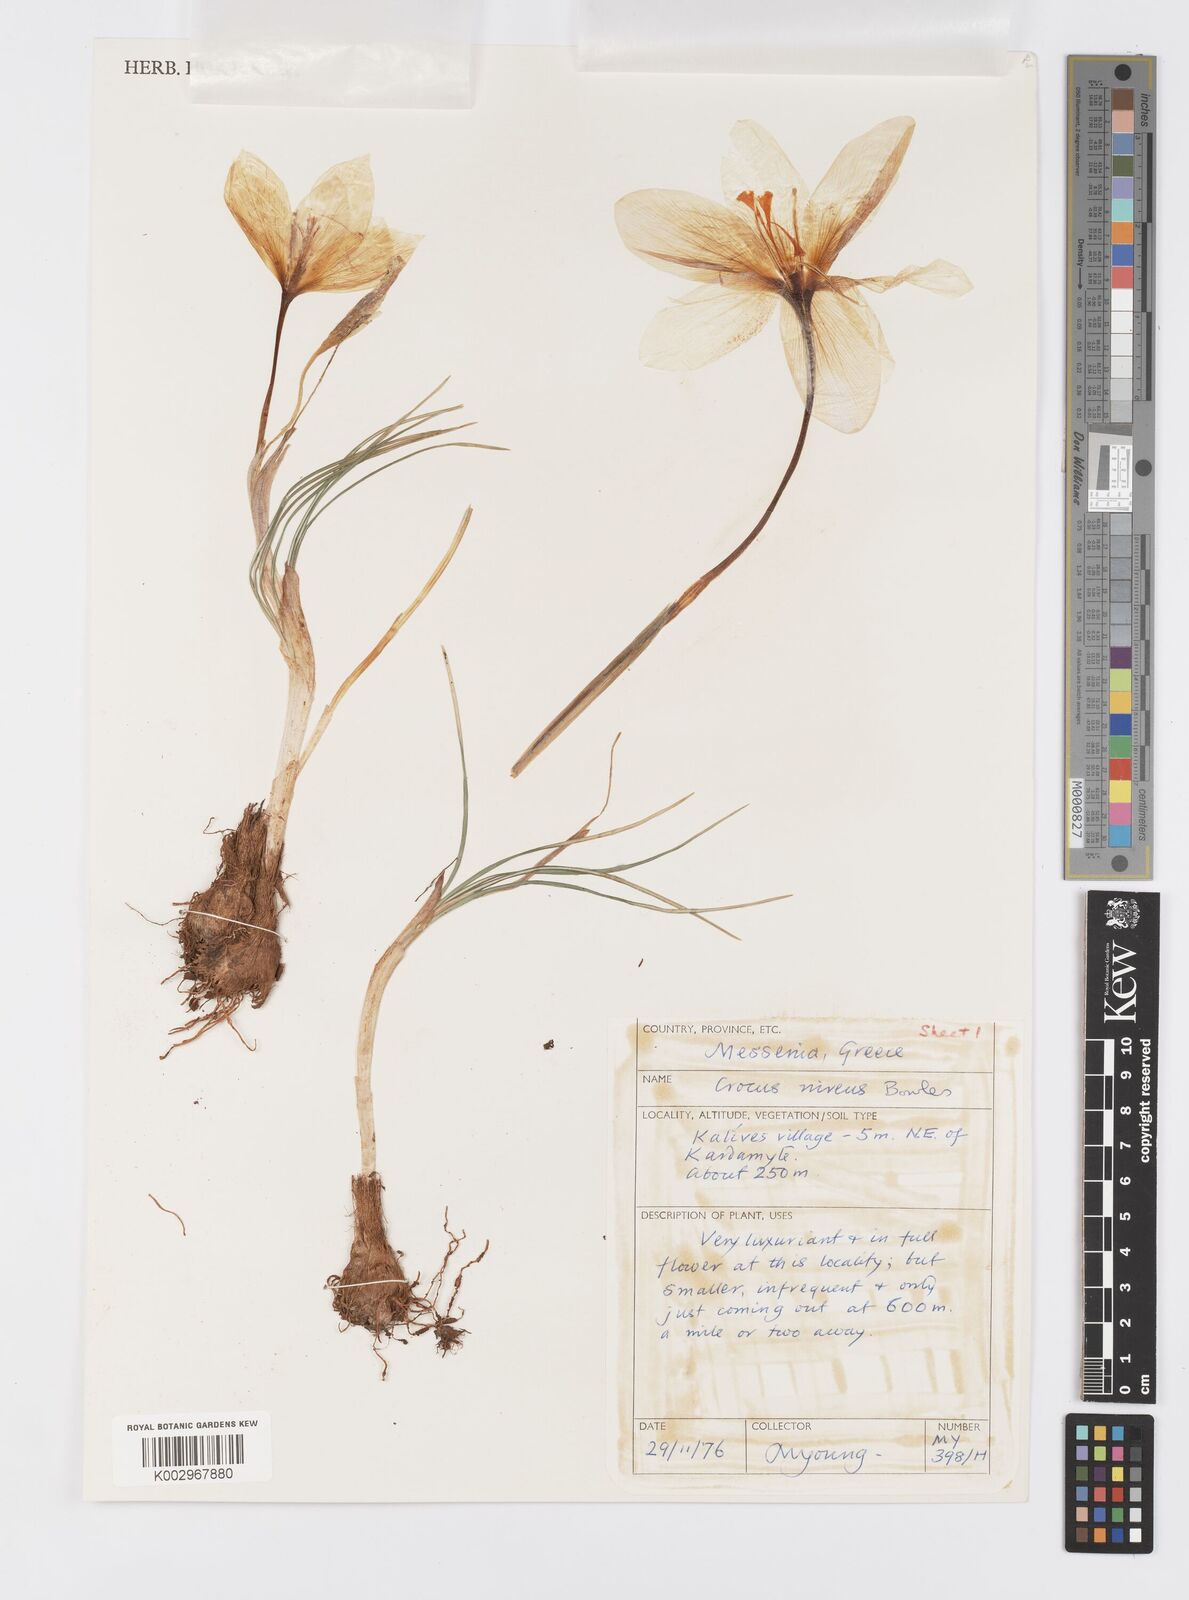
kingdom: Plantae
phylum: Tracheophyta
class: Liliopsida
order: Asparagales
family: Iridaceae
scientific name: Iridaceae
